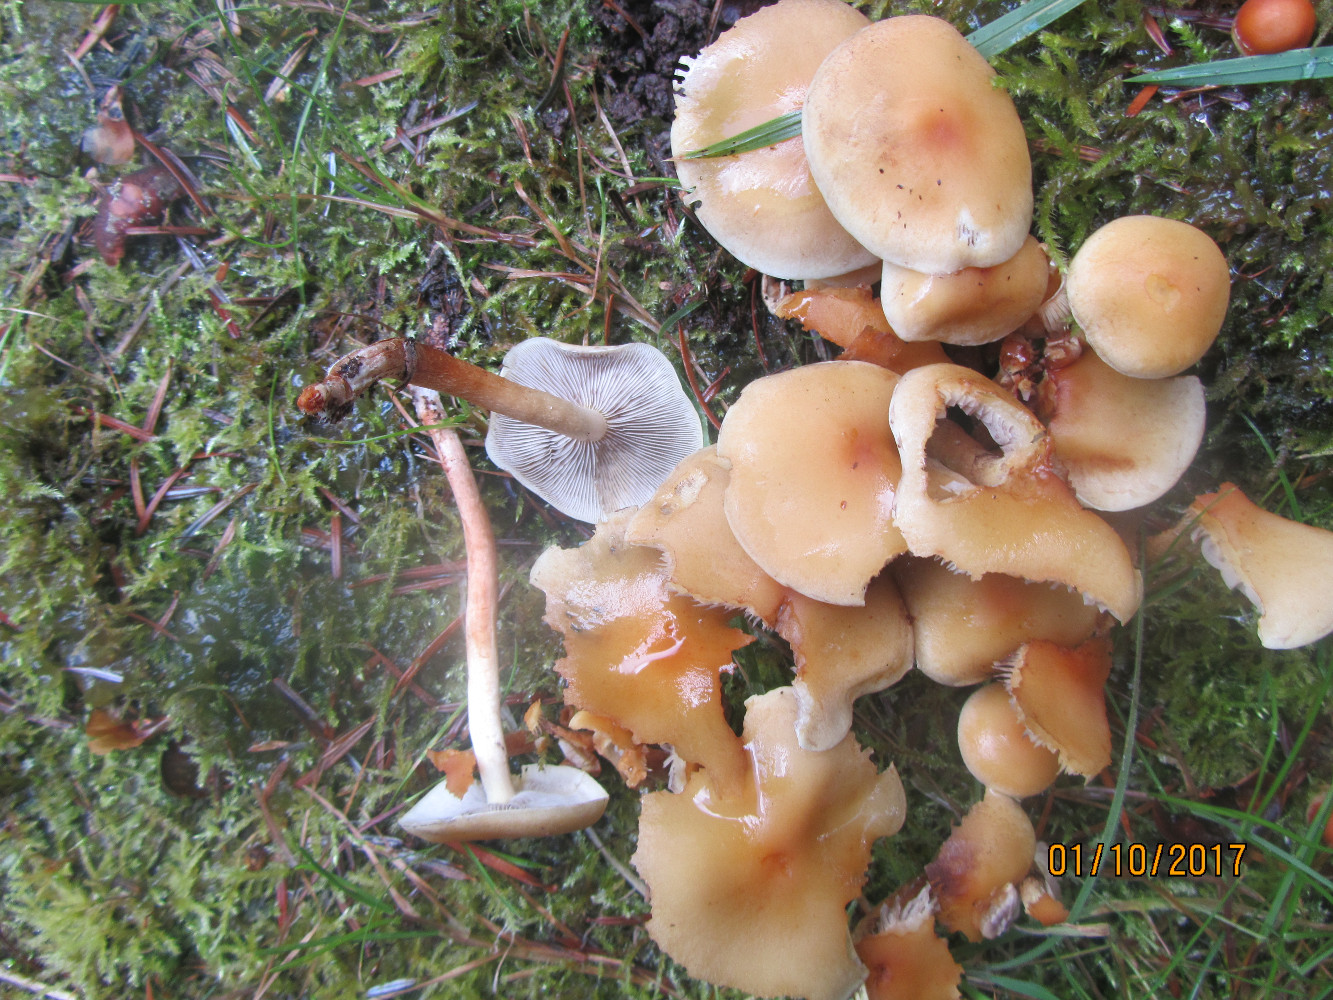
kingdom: Fungi
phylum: Basidiomycota
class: Agaricomycetes
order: Agaricales
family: Strophariaceae
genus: Hypholoma
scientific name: Hypholoma capnoides
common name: gran-svovlhat
